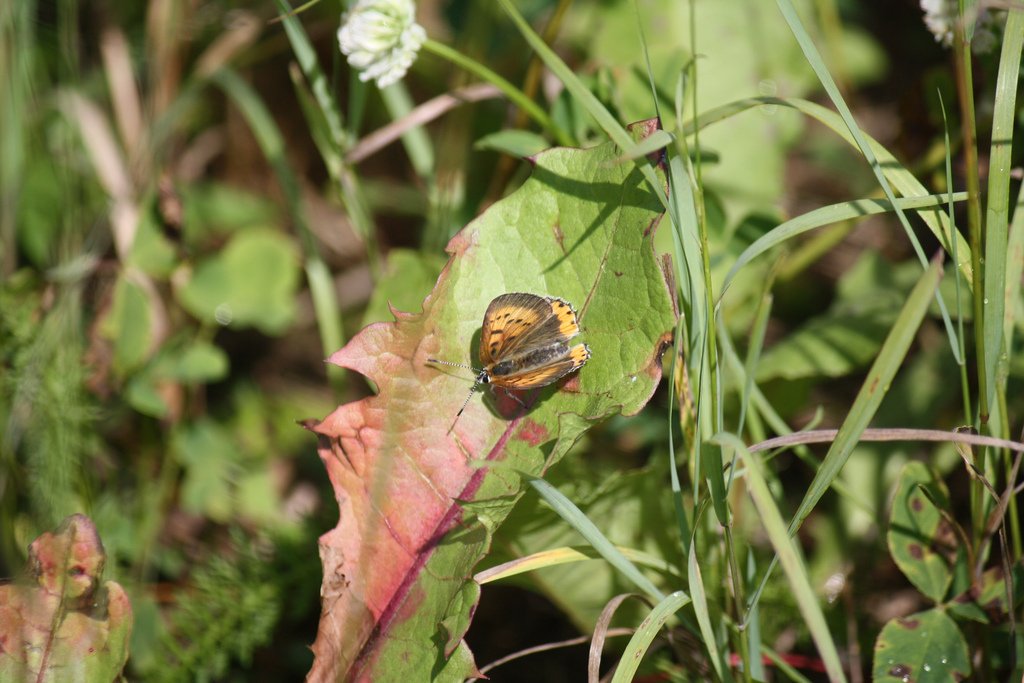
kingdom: Animalia
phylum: Arthropoda
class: Insecta
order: Lepidoptera
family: Sesiidae
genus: Sesia
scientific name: Sesia Lycaena hyllus
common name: Bronze Copper
